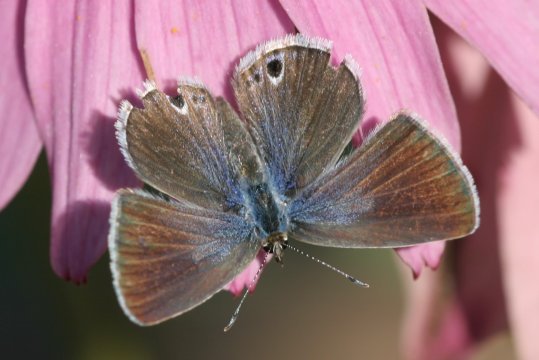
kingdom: Animalia
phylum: Arthropoda
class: Insecta
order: Lepidoptera
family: Lycaenidae
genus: Echinargus
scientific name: Echinargus isola
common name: Reakirt's Blue
